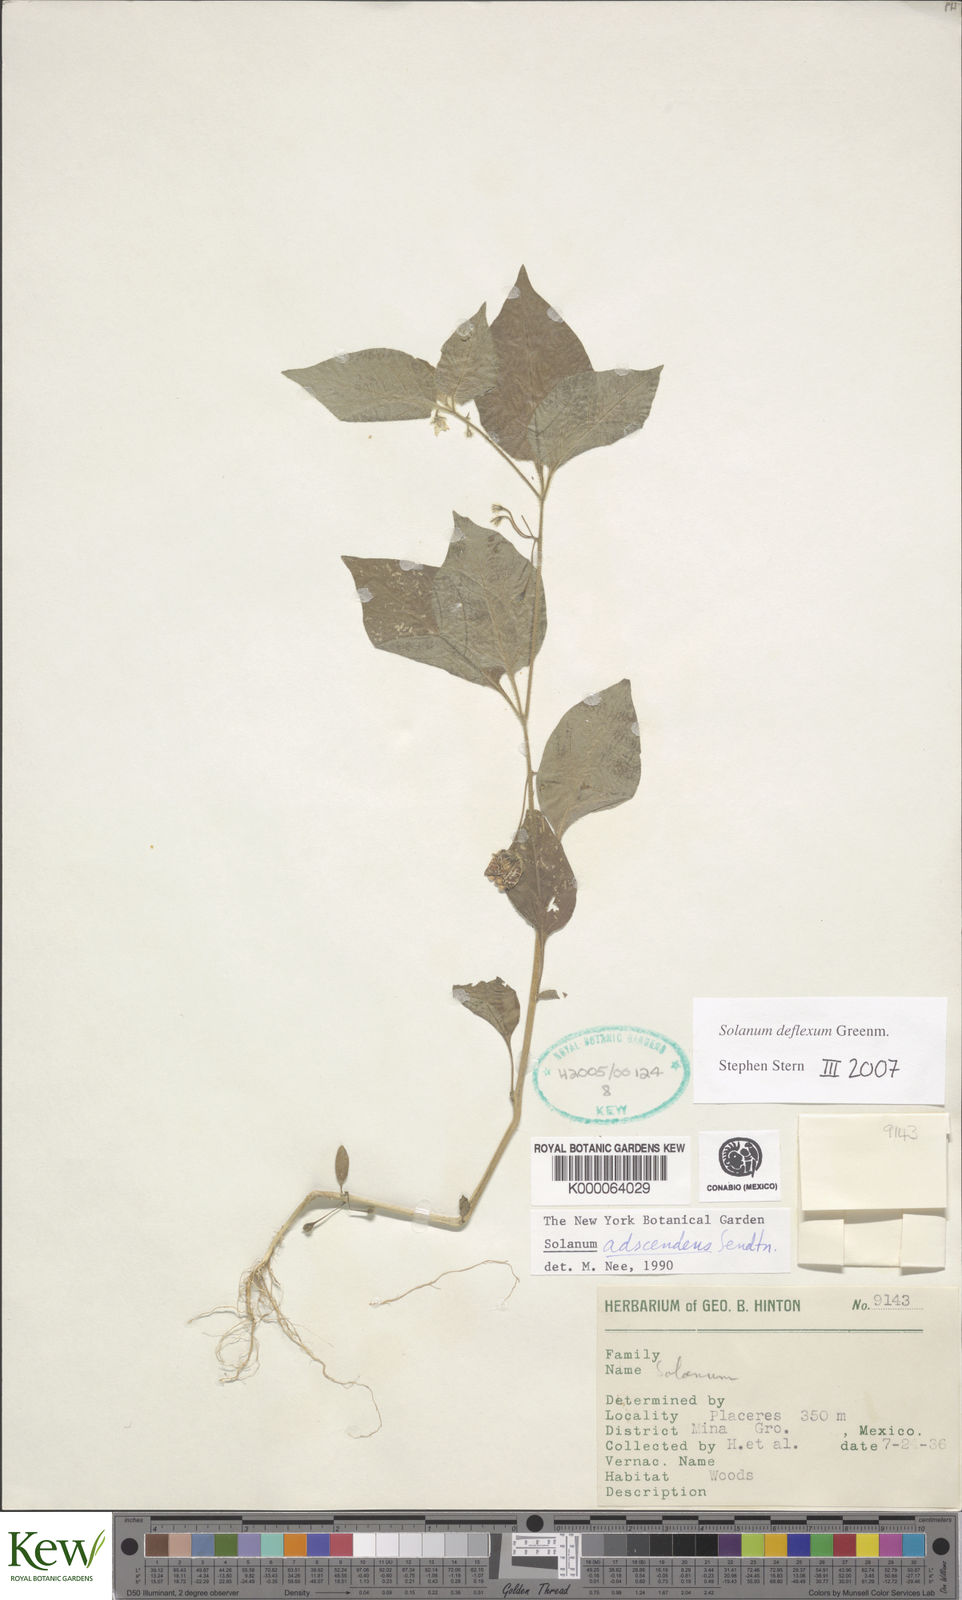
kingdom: Plantae
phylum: Tracheophyta
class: Magnoliopsida
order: Solanales
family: Solanaceae
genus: Solanum
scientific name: Solanum
